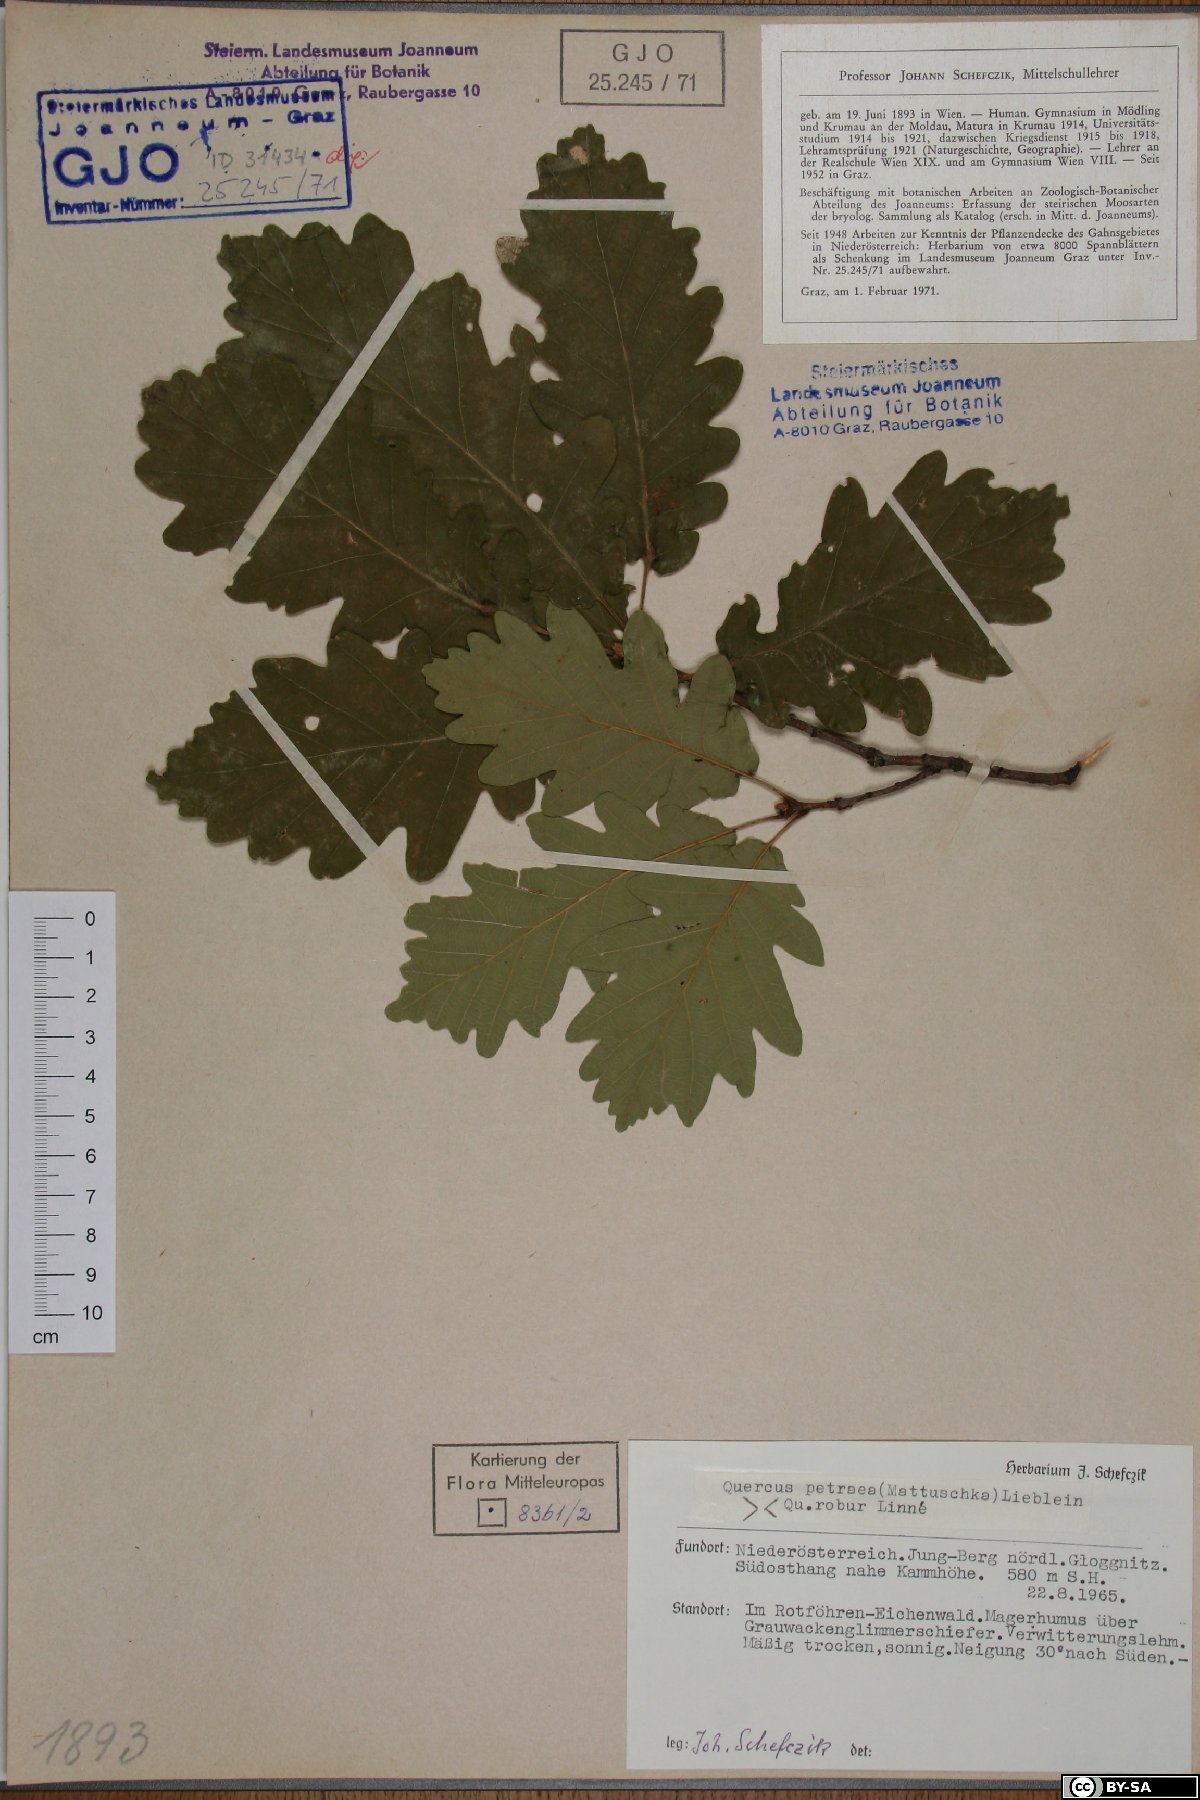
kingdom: Plantae
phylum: Tracheophyta
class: Magnoliopsida
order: Fagales
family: Fagaceae
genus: Quercus
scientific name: Quercus petraea
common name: Sessile oak
